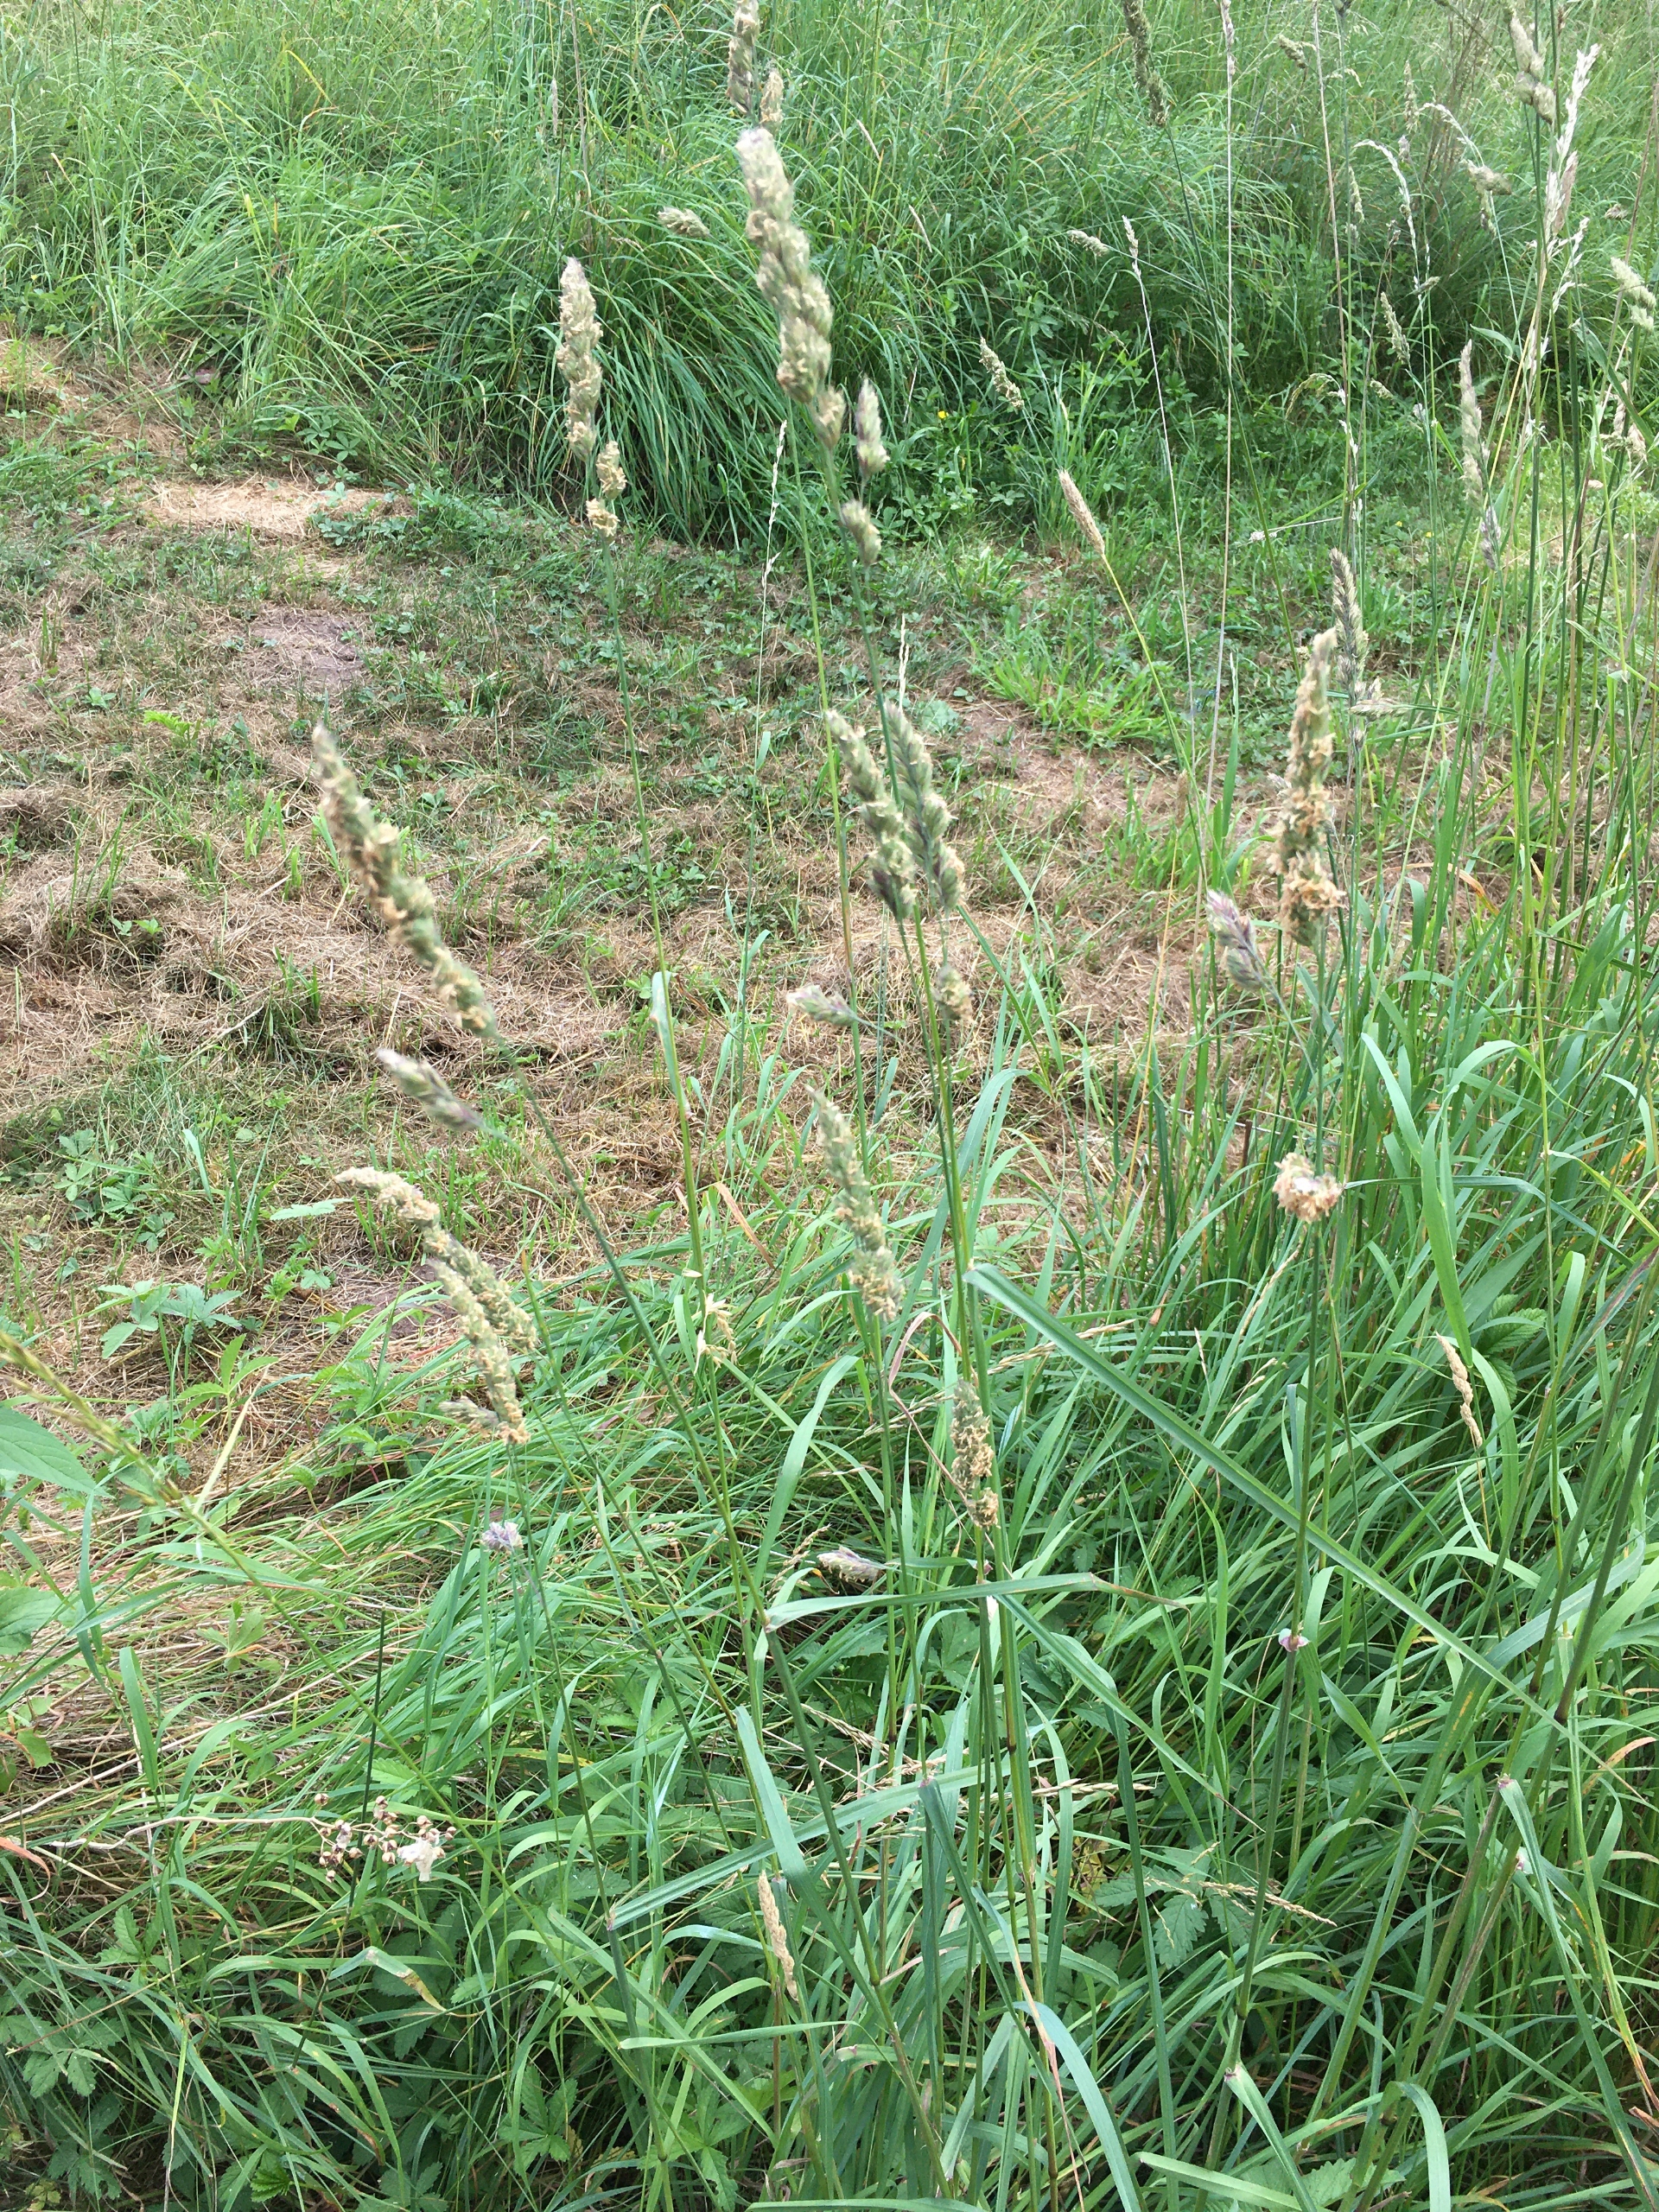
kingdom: Plantae
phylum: Tracheophyta
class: Liliopsida
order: Poales
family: Poaceae
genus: Dactylis
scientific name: Dactylis glomerata
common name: Almindelig hundegræs
